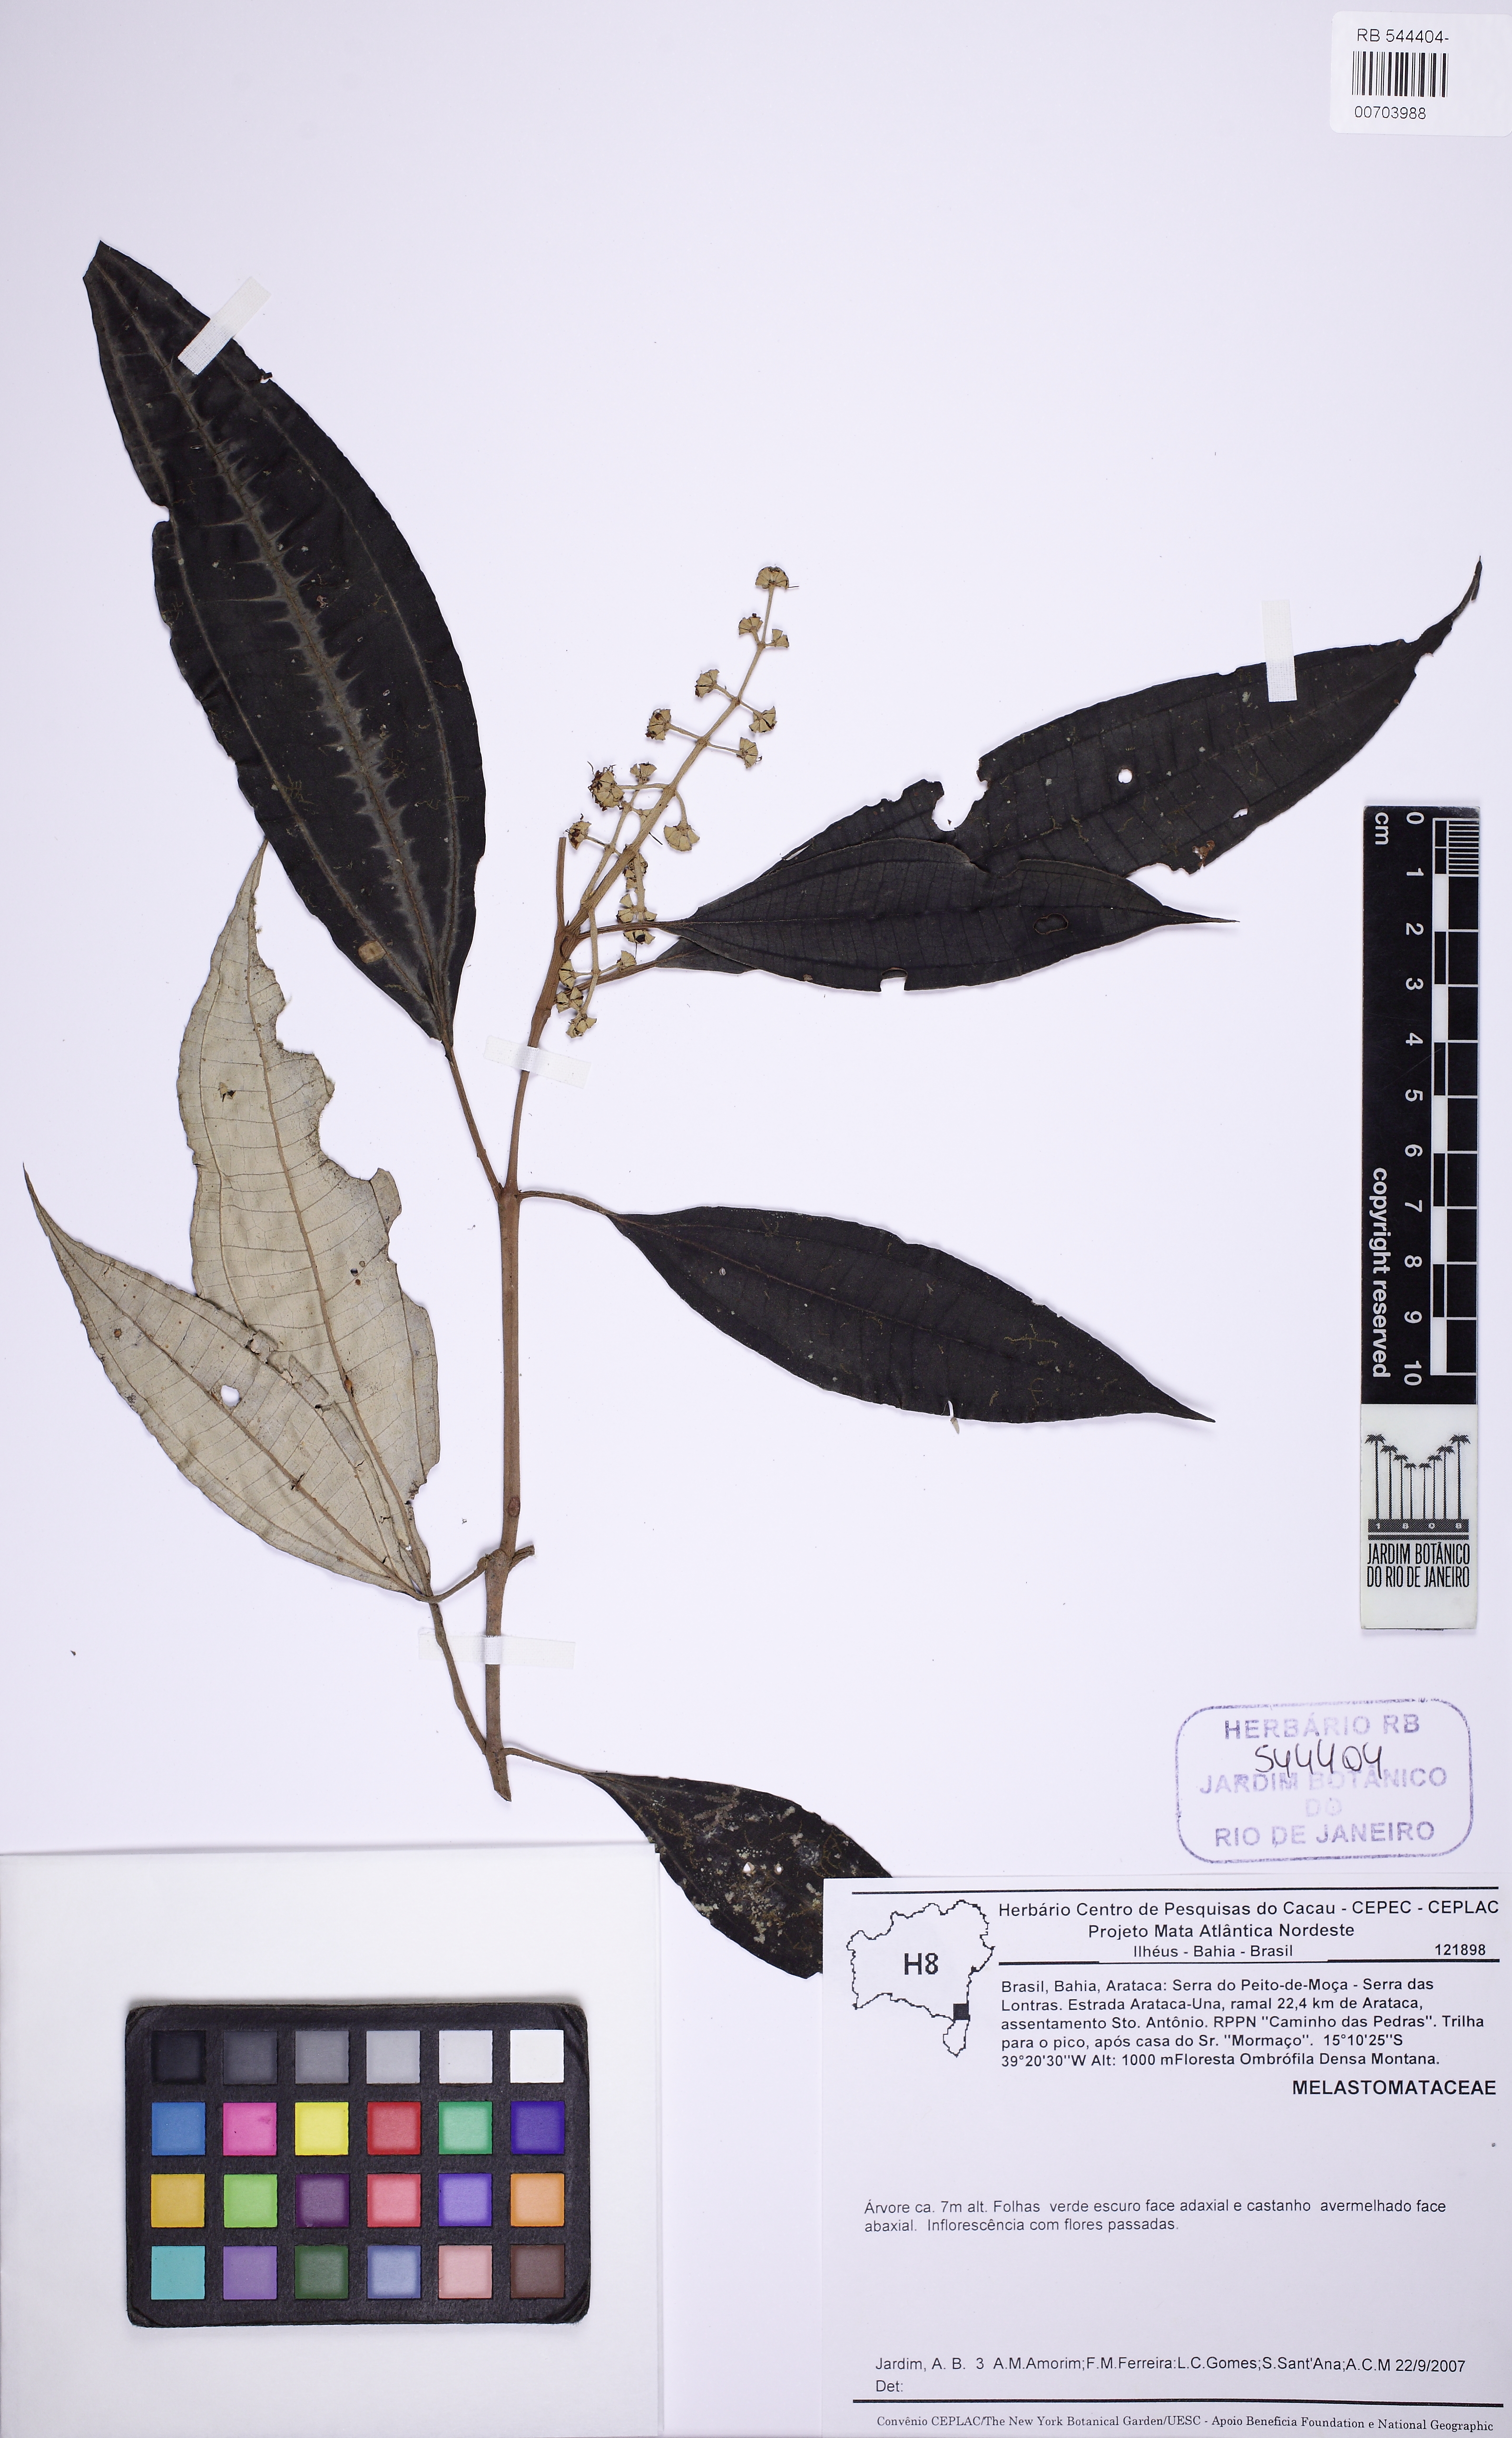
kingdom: Plantae
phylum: Tracheophyta
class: Magnoliopsida
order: Myrtales
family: Melastomataceae
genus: Miconia
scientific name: Miconia buddlejoides
